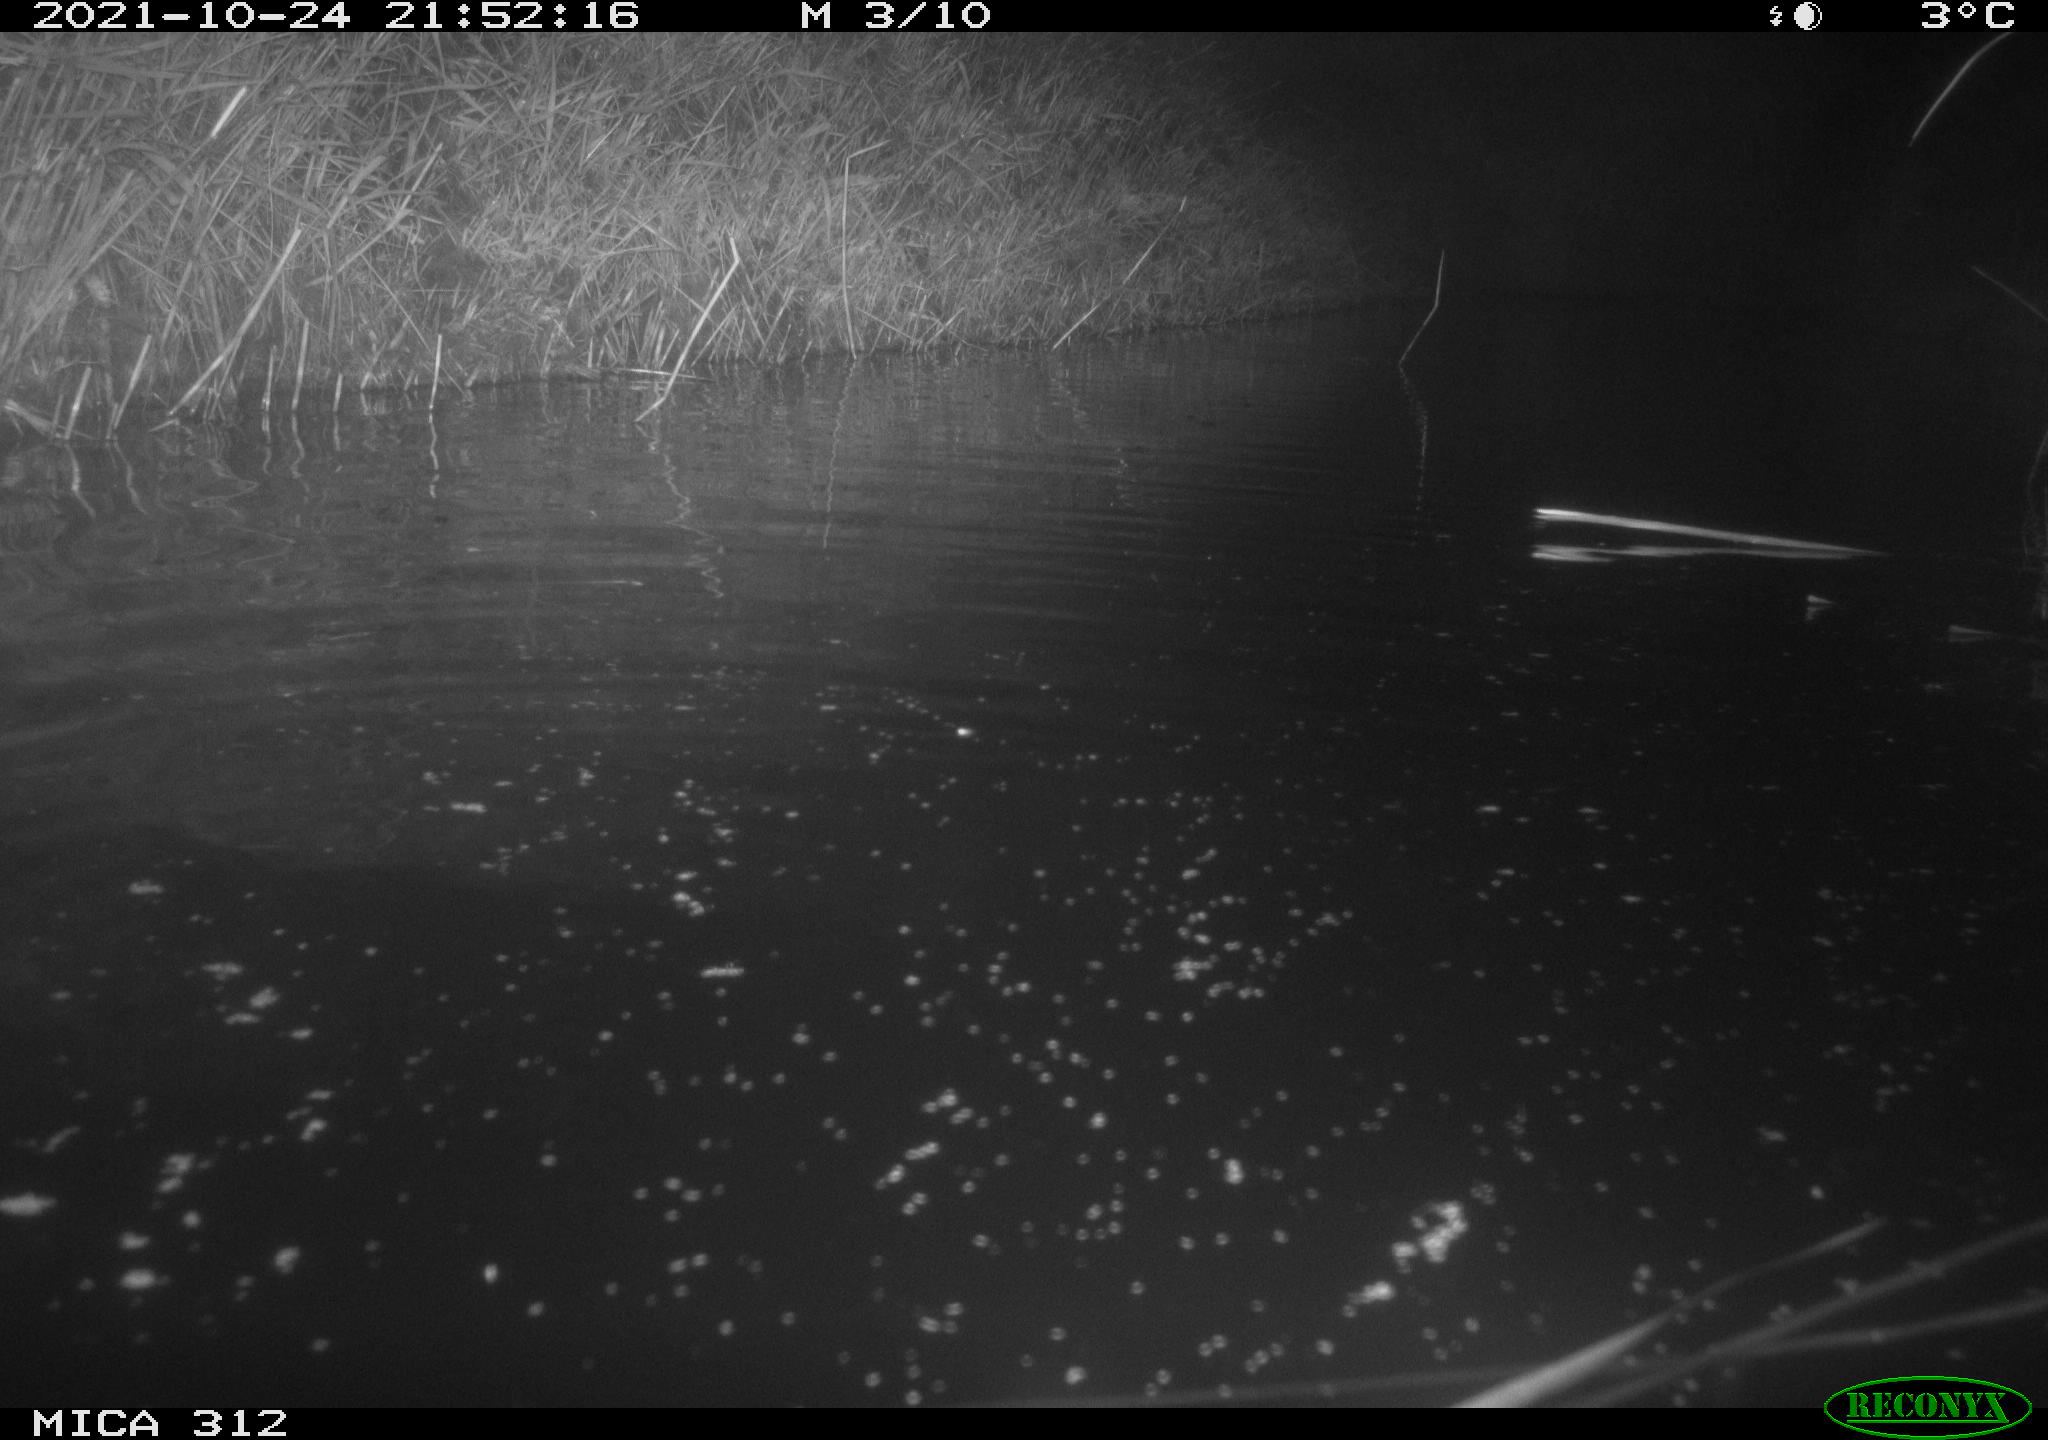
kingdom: Animalia
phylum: Chordata
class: Mammalia
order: Rodentia
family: Cricetidae
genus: Ondatra
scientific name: Ondatra zibethicus
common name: Muskrat
